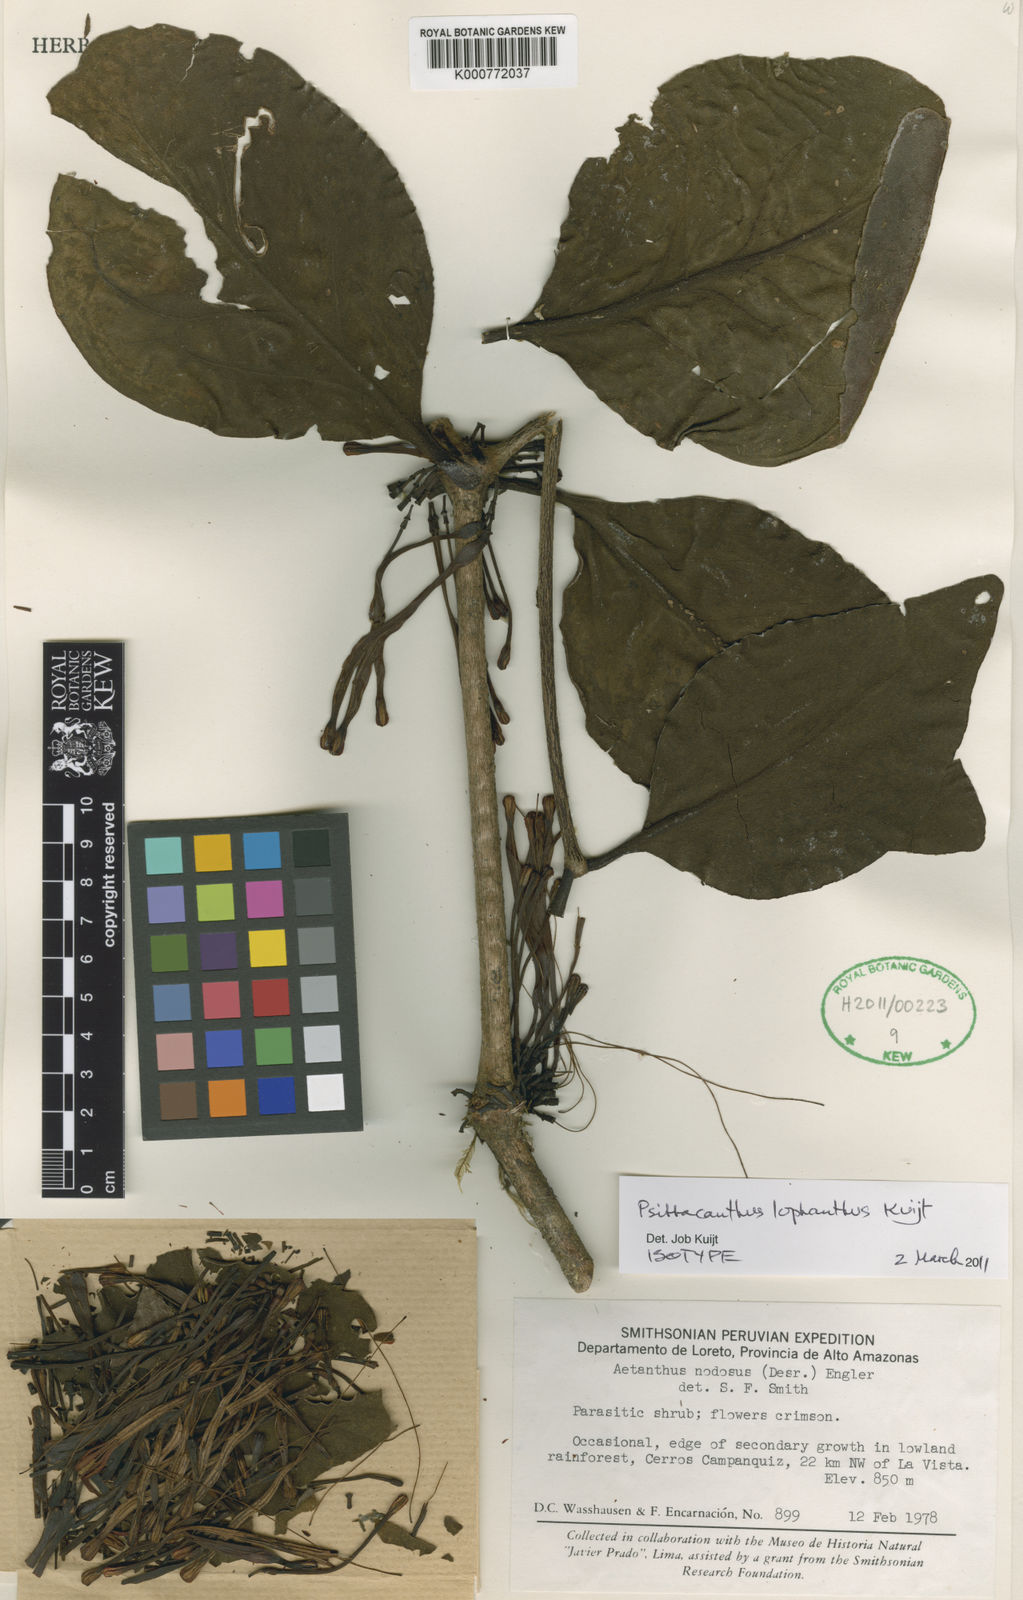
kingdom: Plantae
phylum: Tracheophyta
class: Magnoliopsida
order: Santalales
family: Loranthaceae
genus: Psittacanthus
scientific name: Psittacanthus
